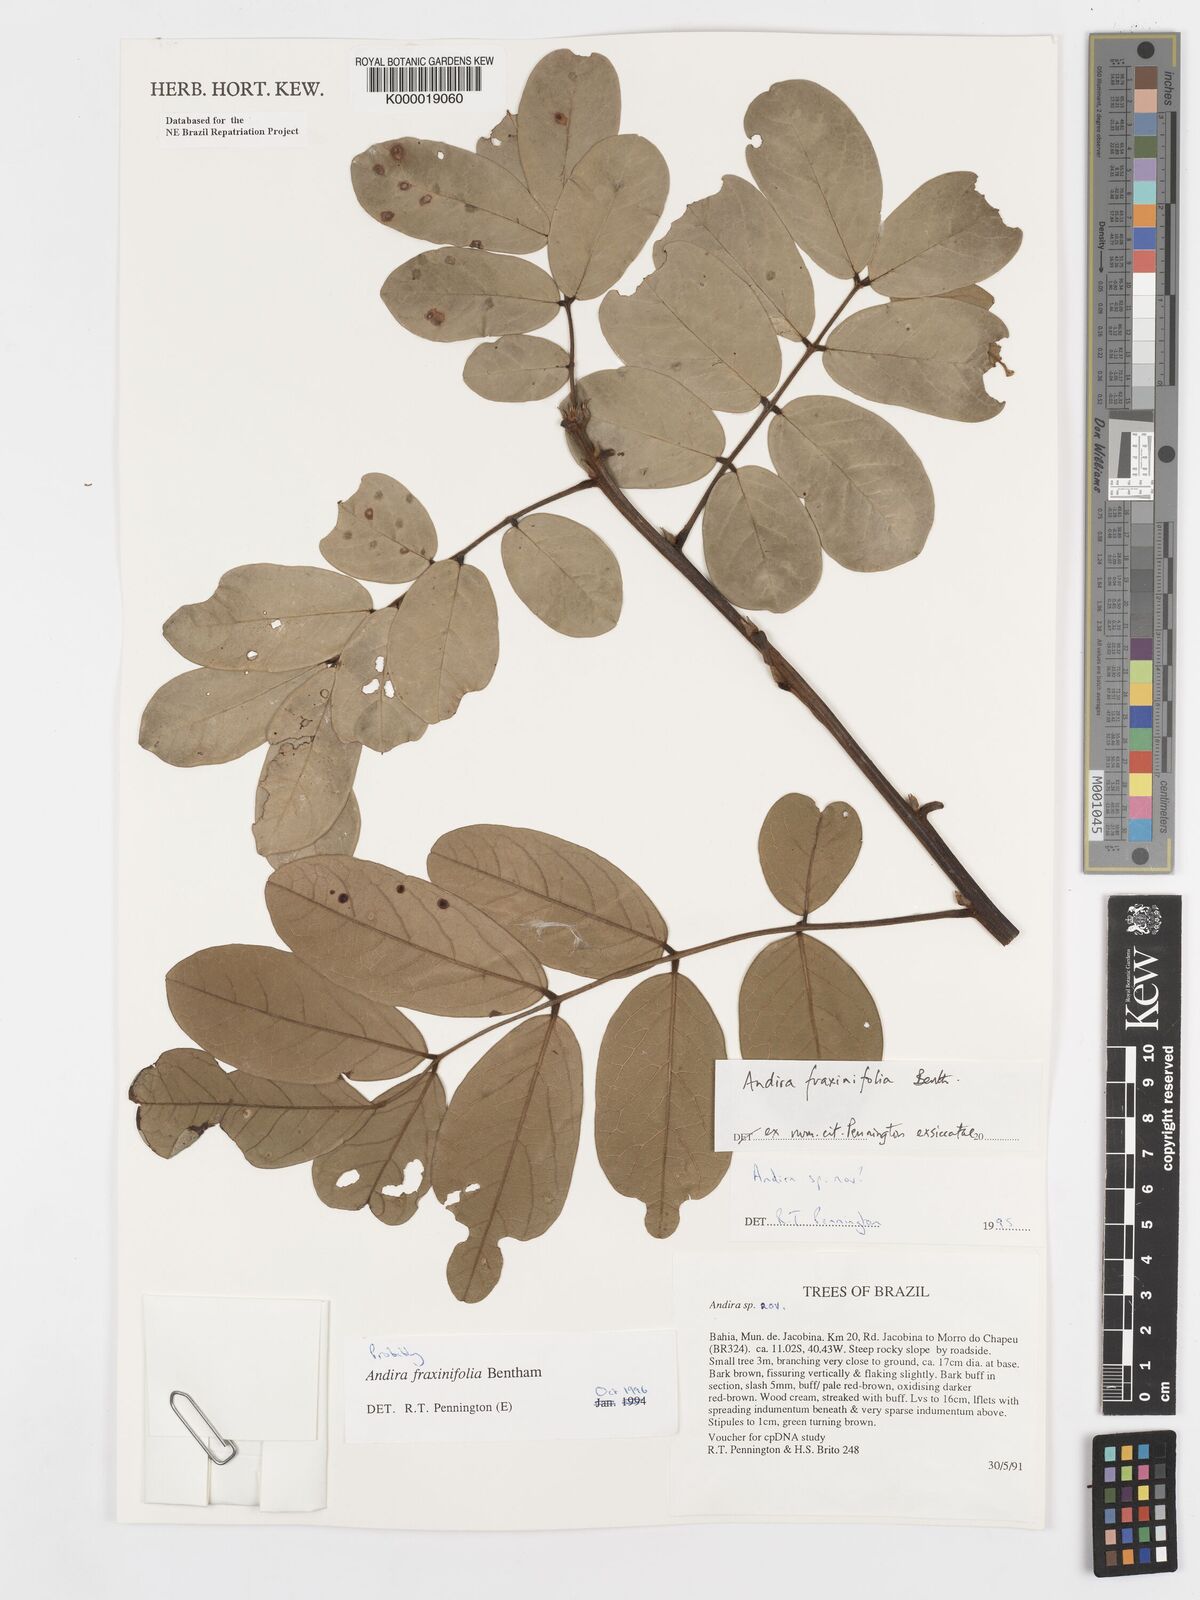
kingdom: Plantae
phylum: Tracheophyta
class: Magnoliopsida
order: Fabales
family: Fabaceae
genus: Andira
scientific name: Andira fraxinifolia
